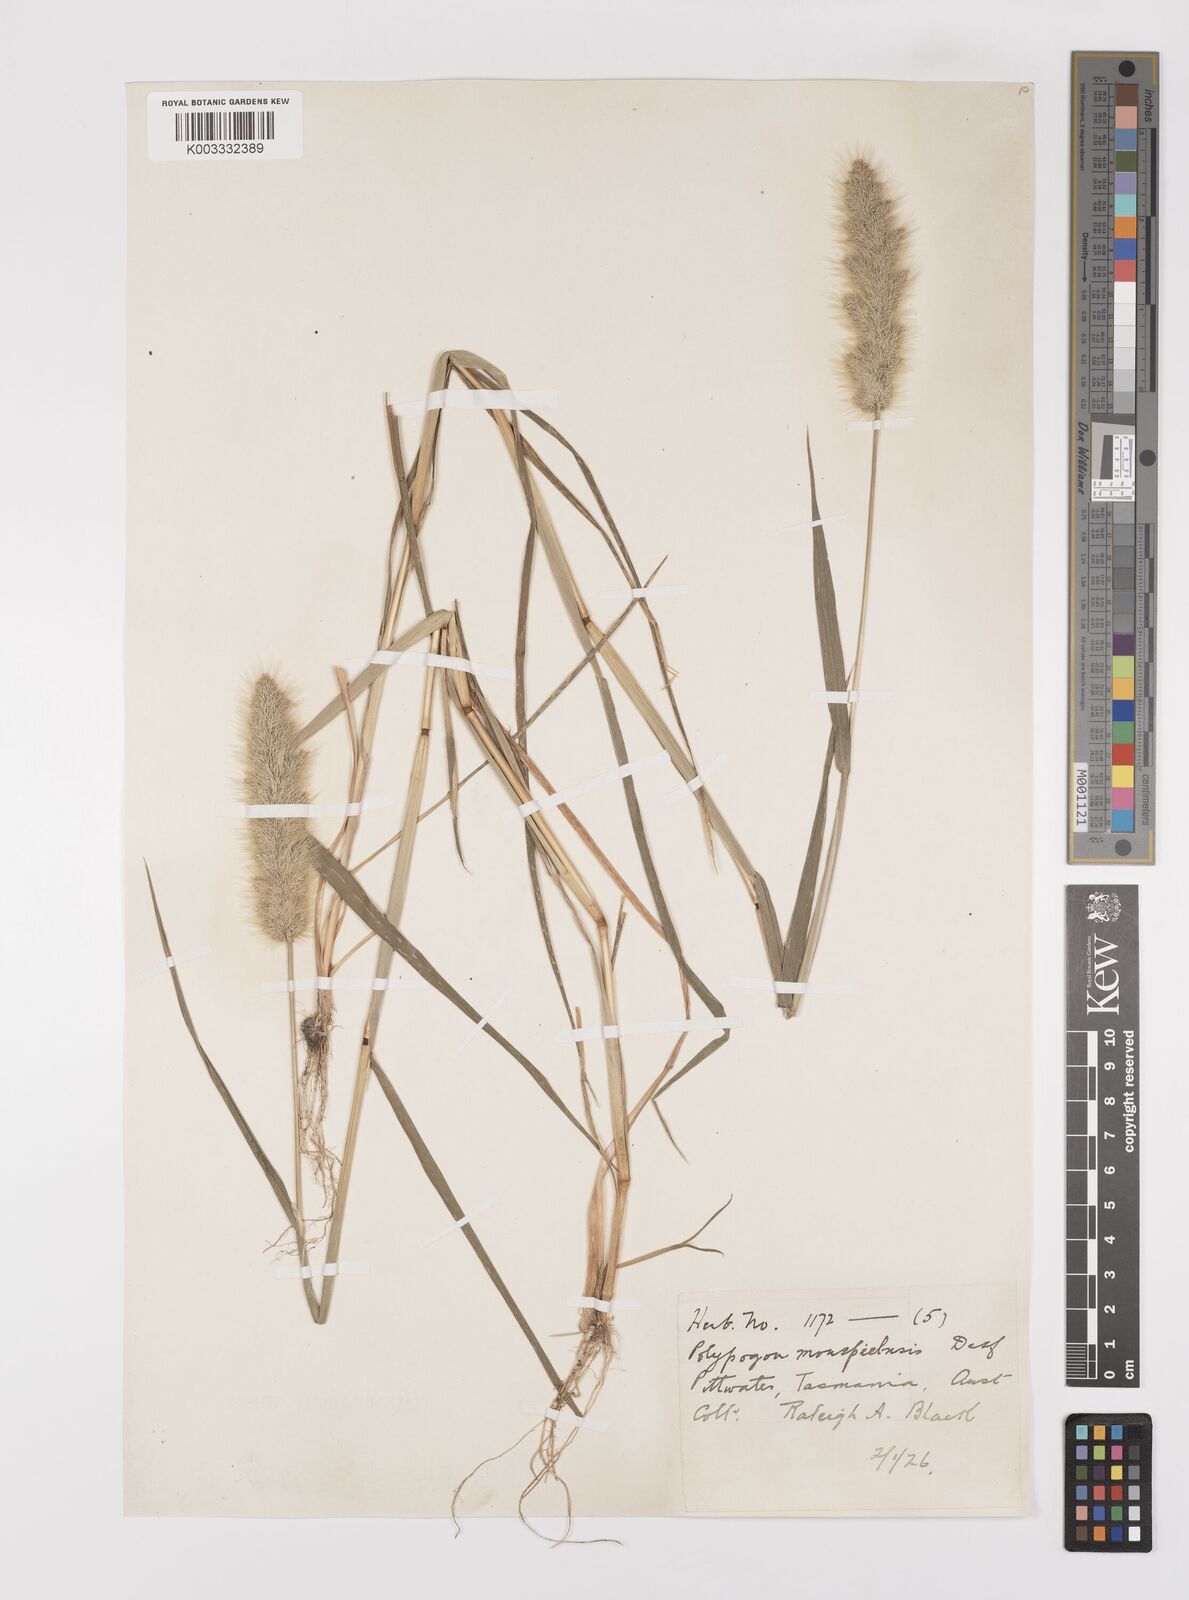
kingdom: Plantae
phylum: Tracheophyta
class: Liliopsida
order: Poales
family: Poaceae
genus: Polypogon
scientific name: Polypogon monspeliensis
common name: Annual rabbitsfoot grass
